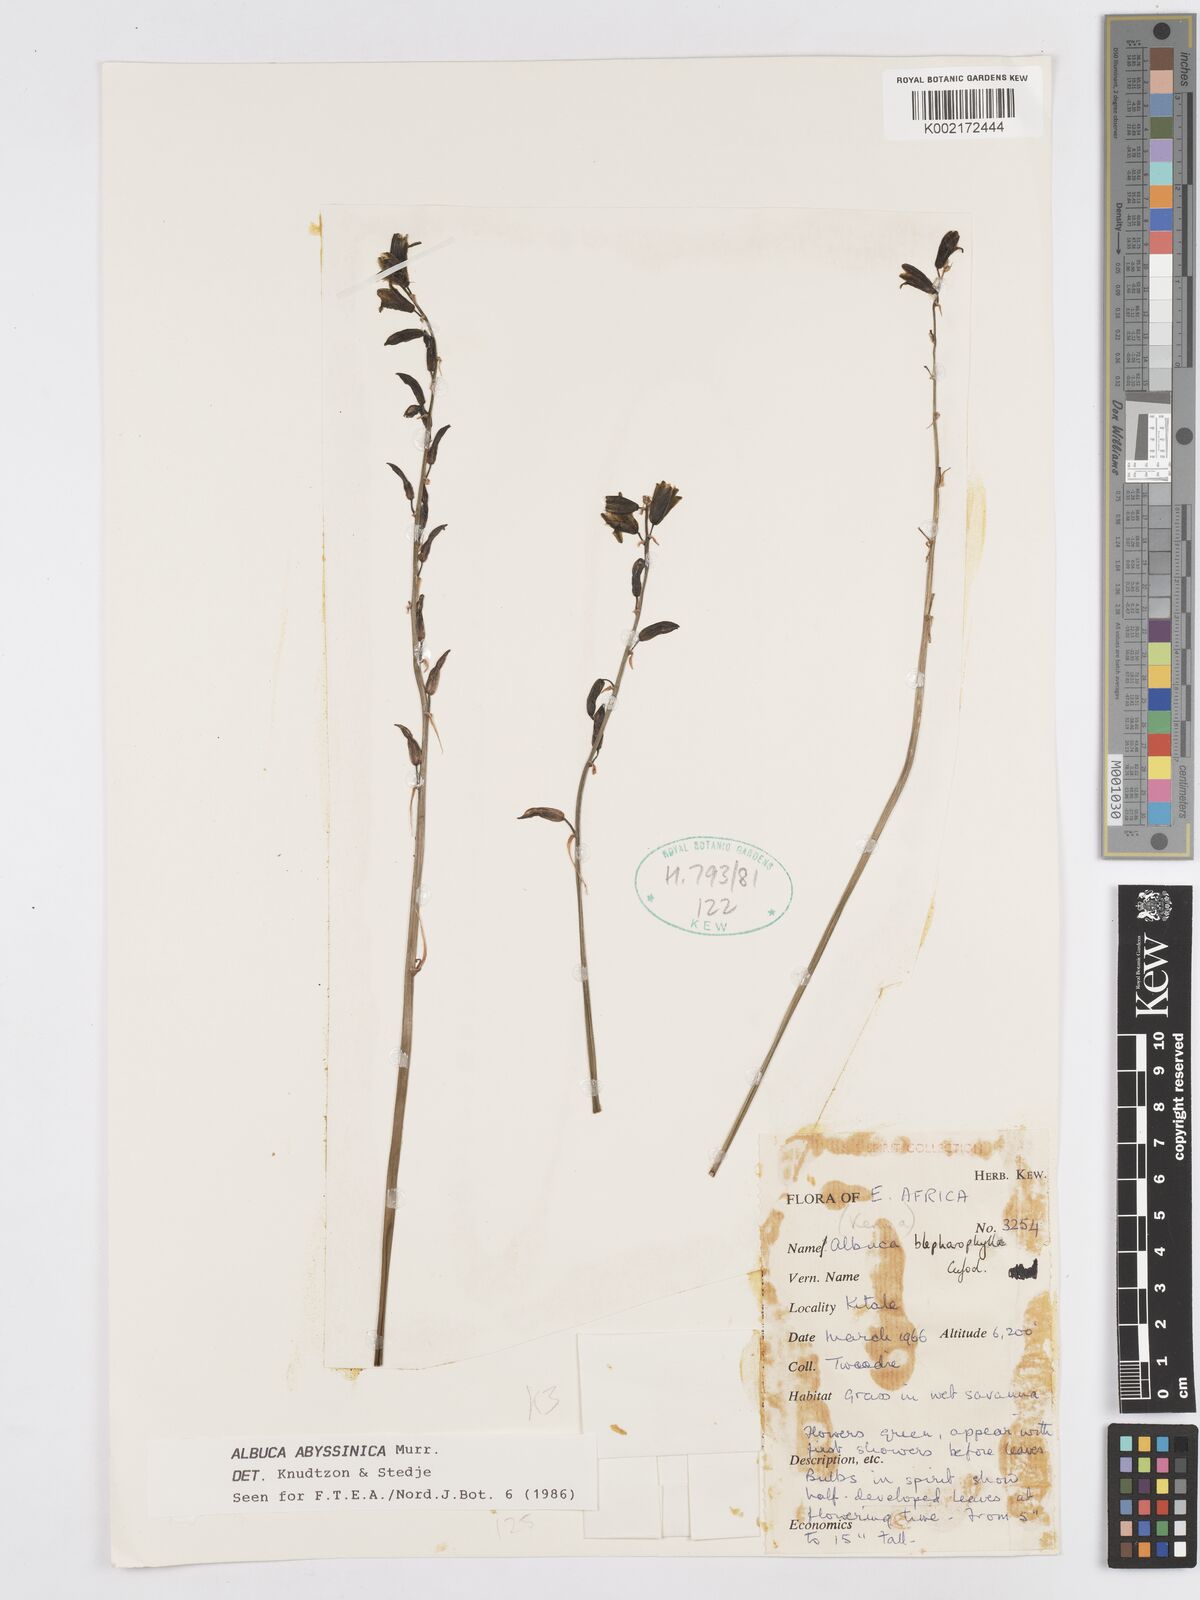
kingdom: Plantae
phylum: Tracheophyta
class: Liliopsida
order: Asparagales
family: Asparagaceae
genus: Albuca
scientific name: Albuca abyssinica
